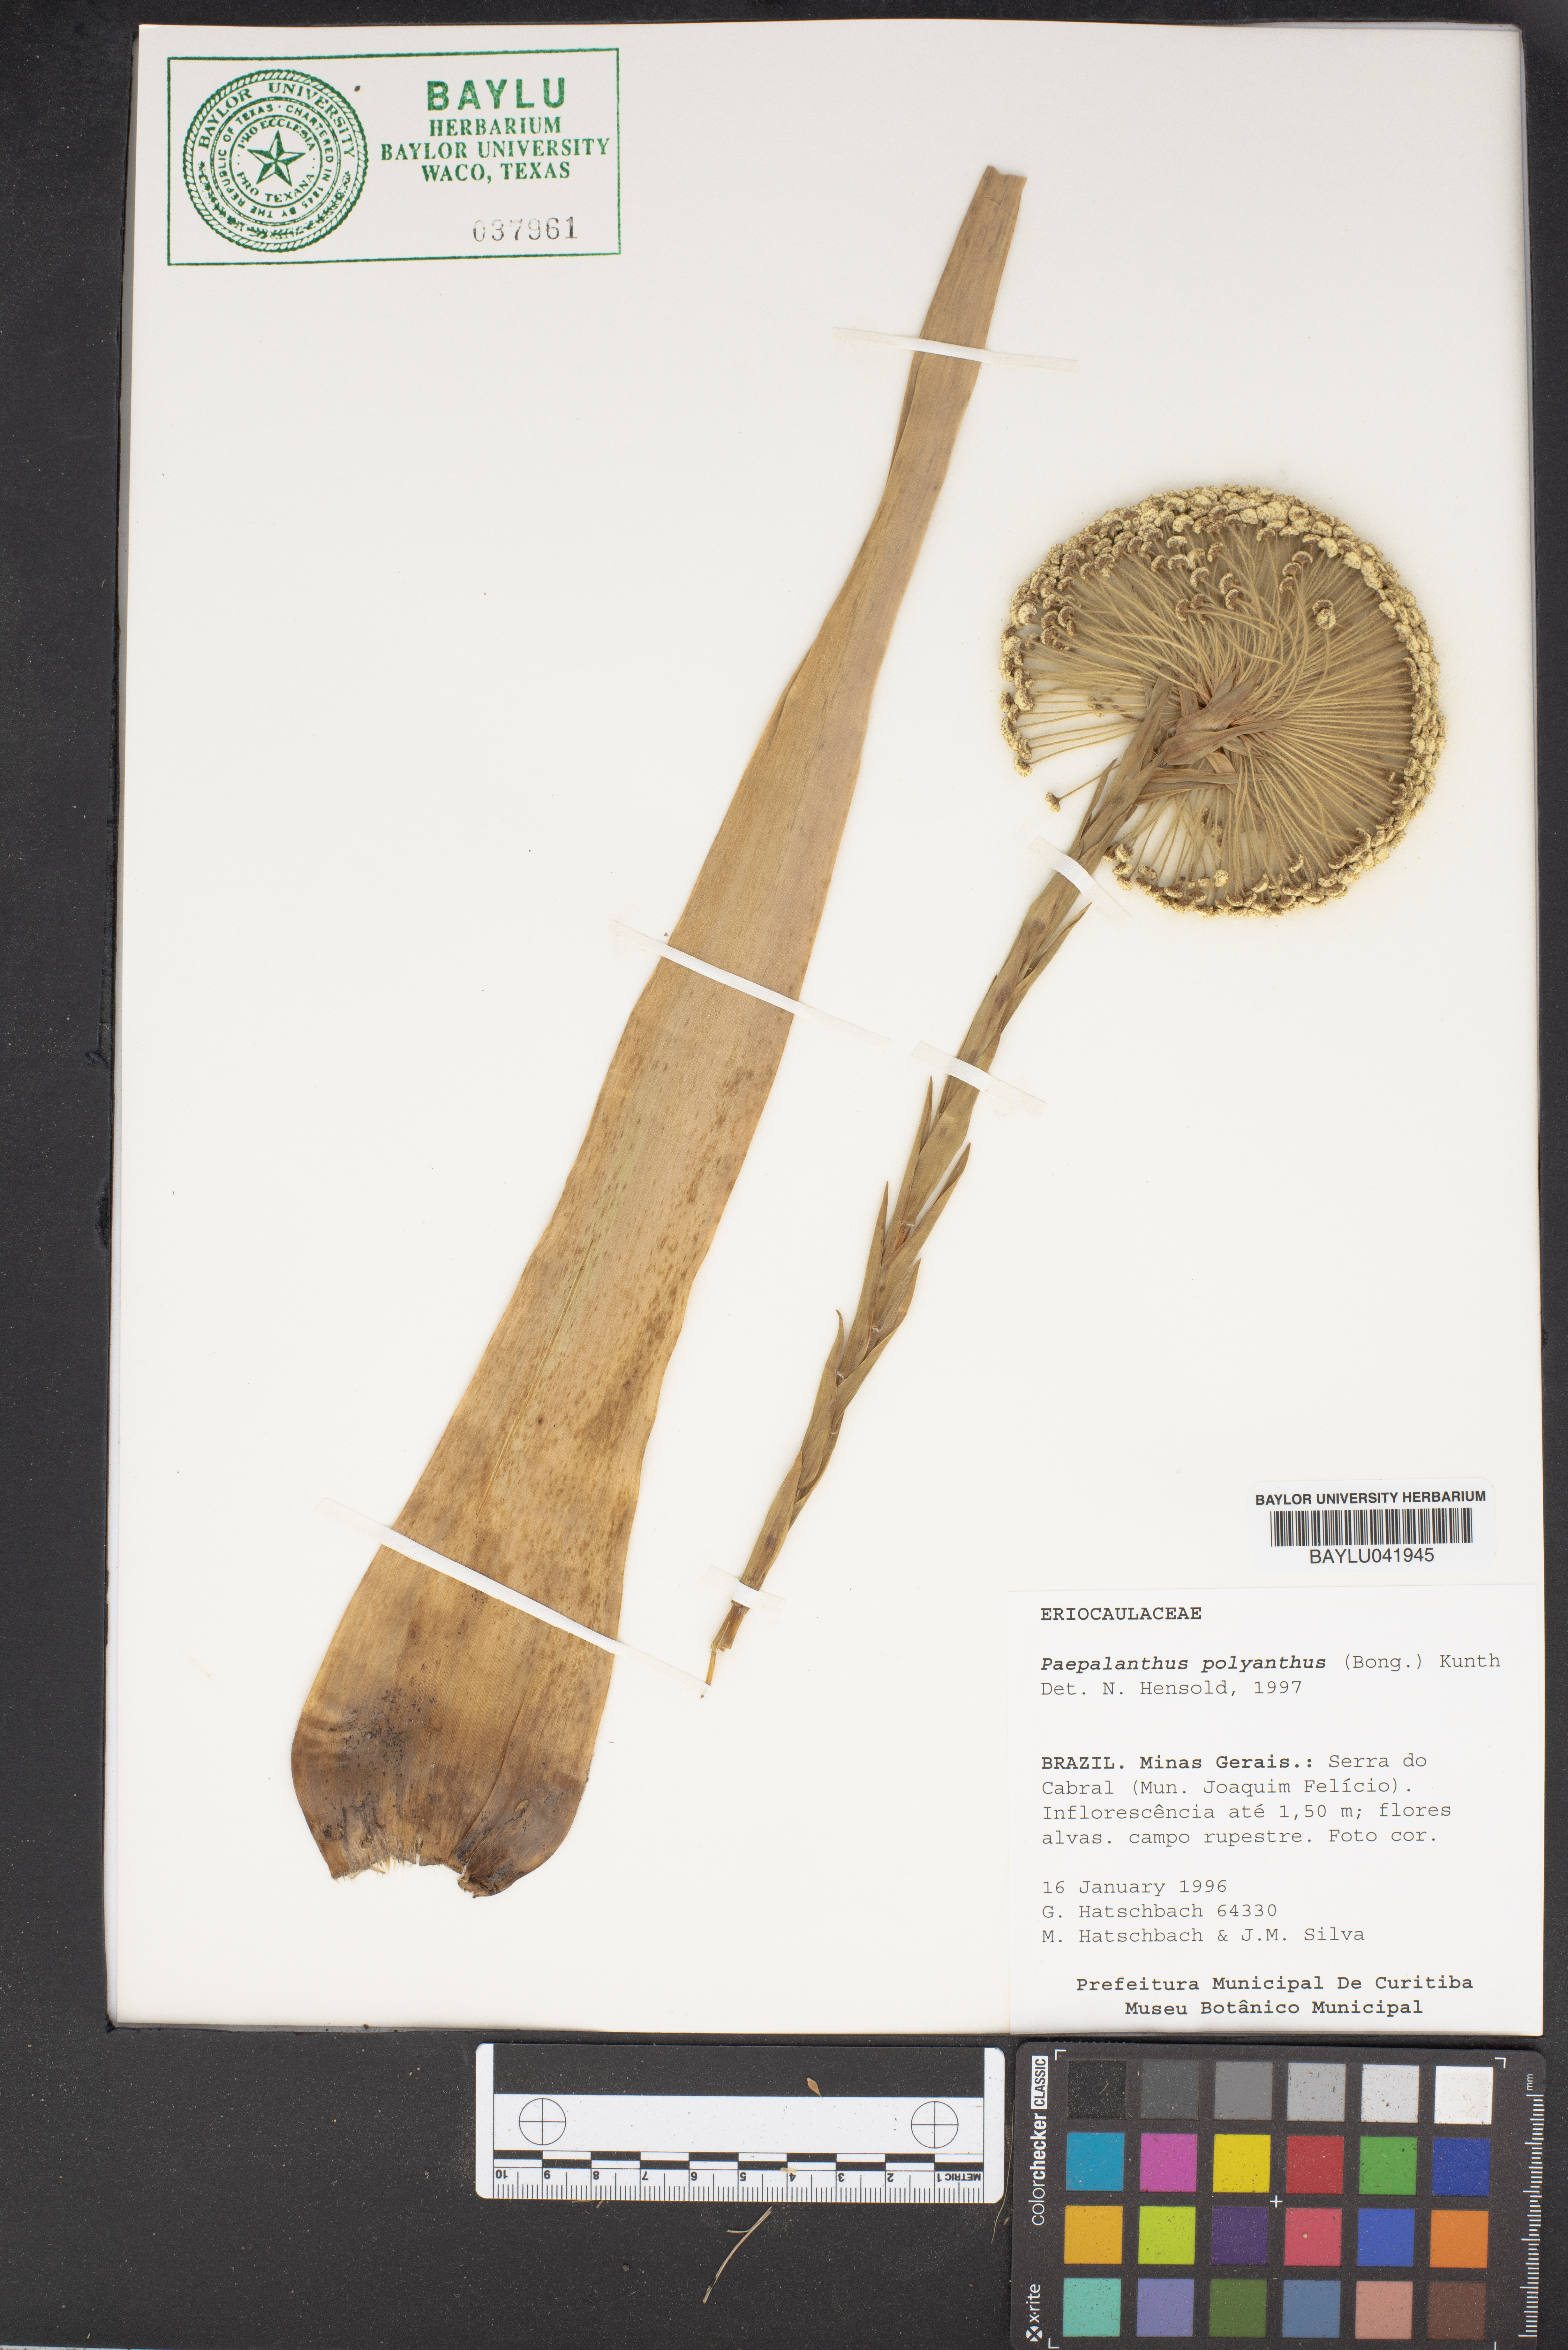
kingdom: Plantae
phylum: Tracheophyta
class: Liliopsida
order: Poales
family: Eriocaulaceae
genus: Paepalanthus
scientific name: Paepalanthus polyanthus
